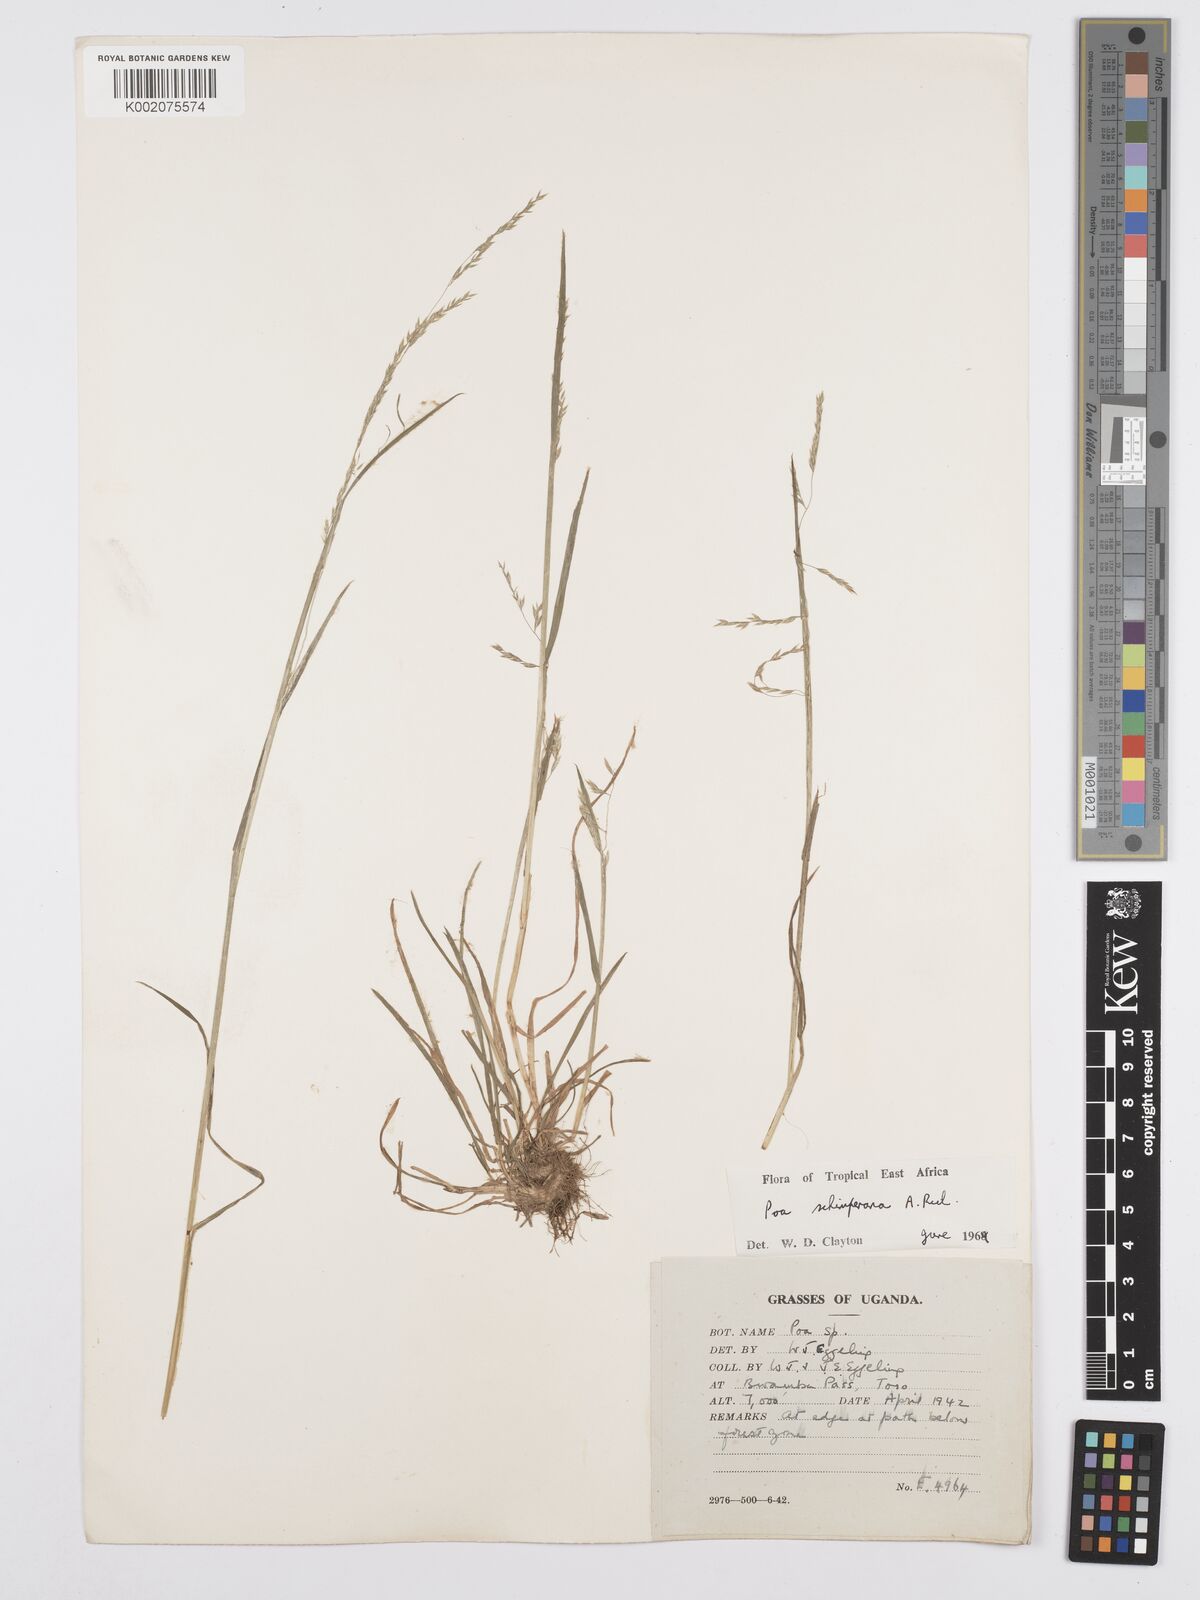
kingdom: Plantae
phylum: Tracheophyta
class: Liliopsida
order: Poales
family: Poaceae
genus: Poa
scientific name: Poa schimperiana
